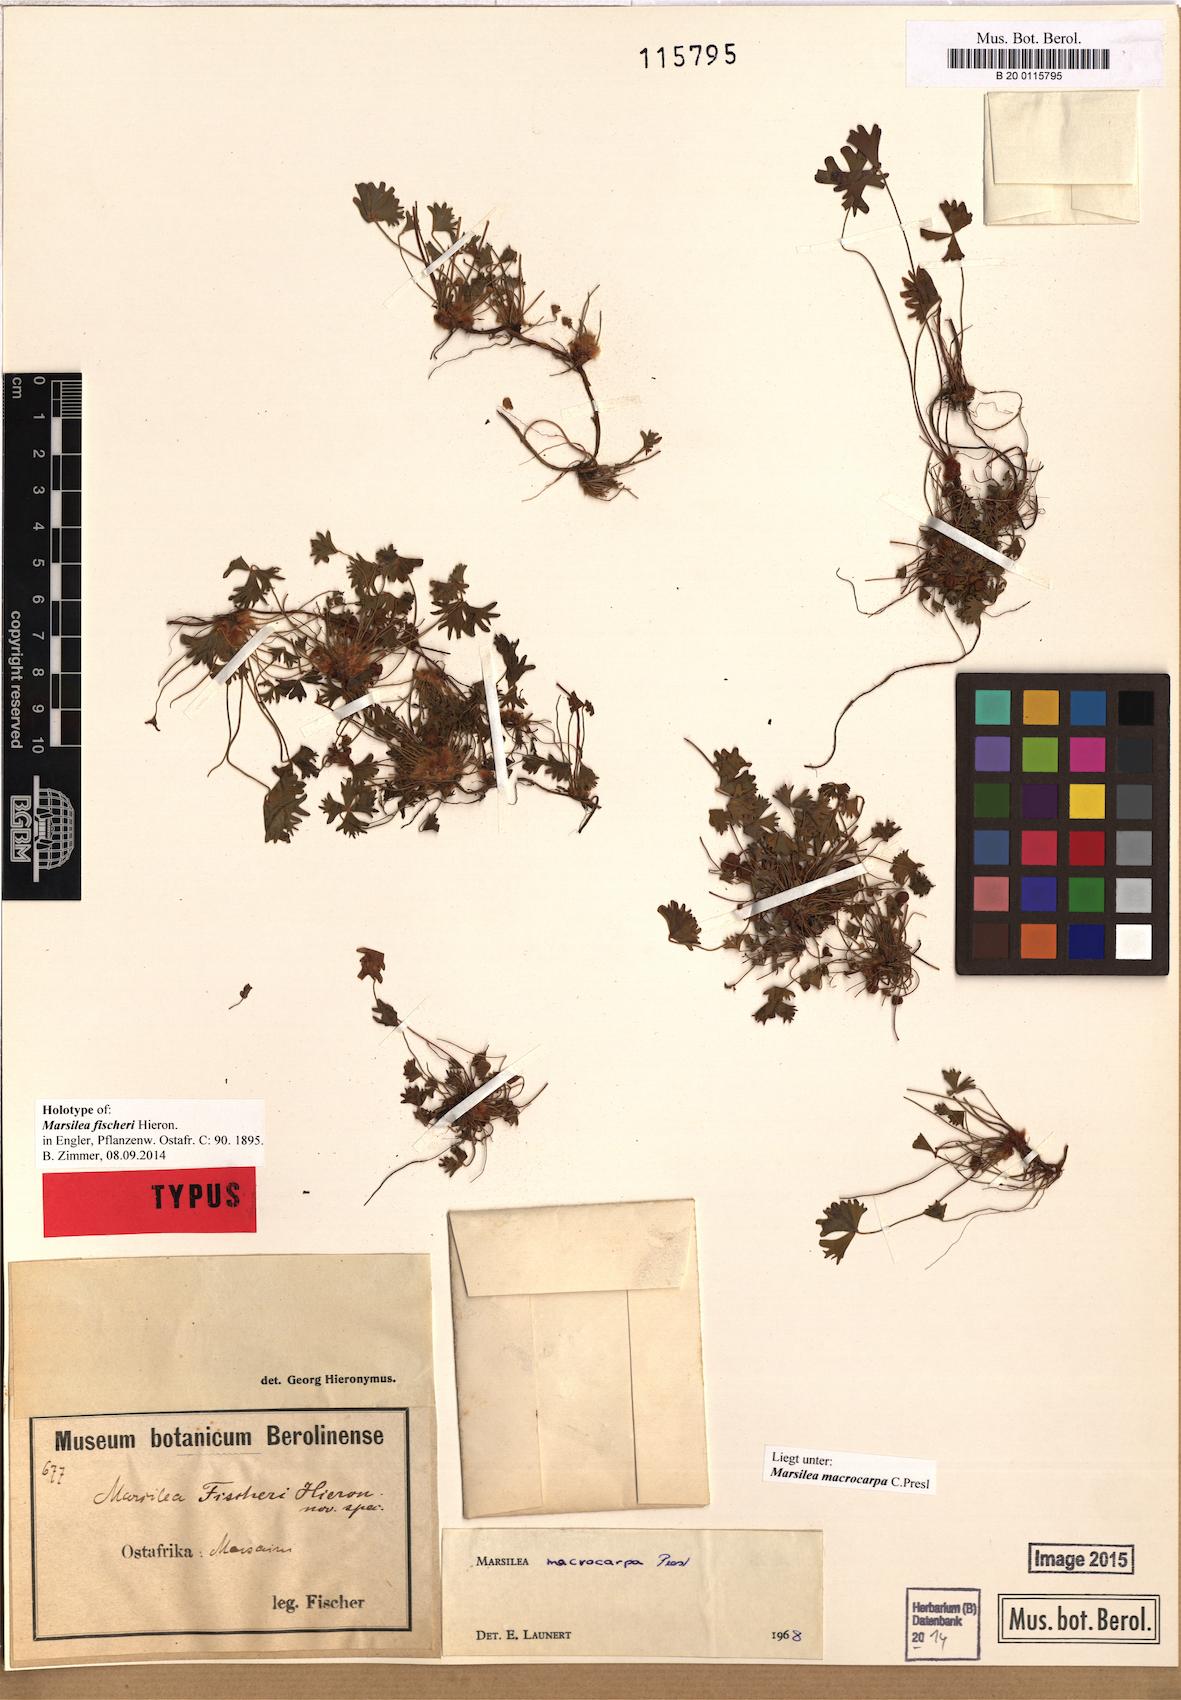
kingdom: Plantae
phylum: Tracheophyta
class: Polypodiopsida
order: Salviniales
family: Marsileaceae
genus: Marsilea
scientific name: Marsilea macrocarpa
